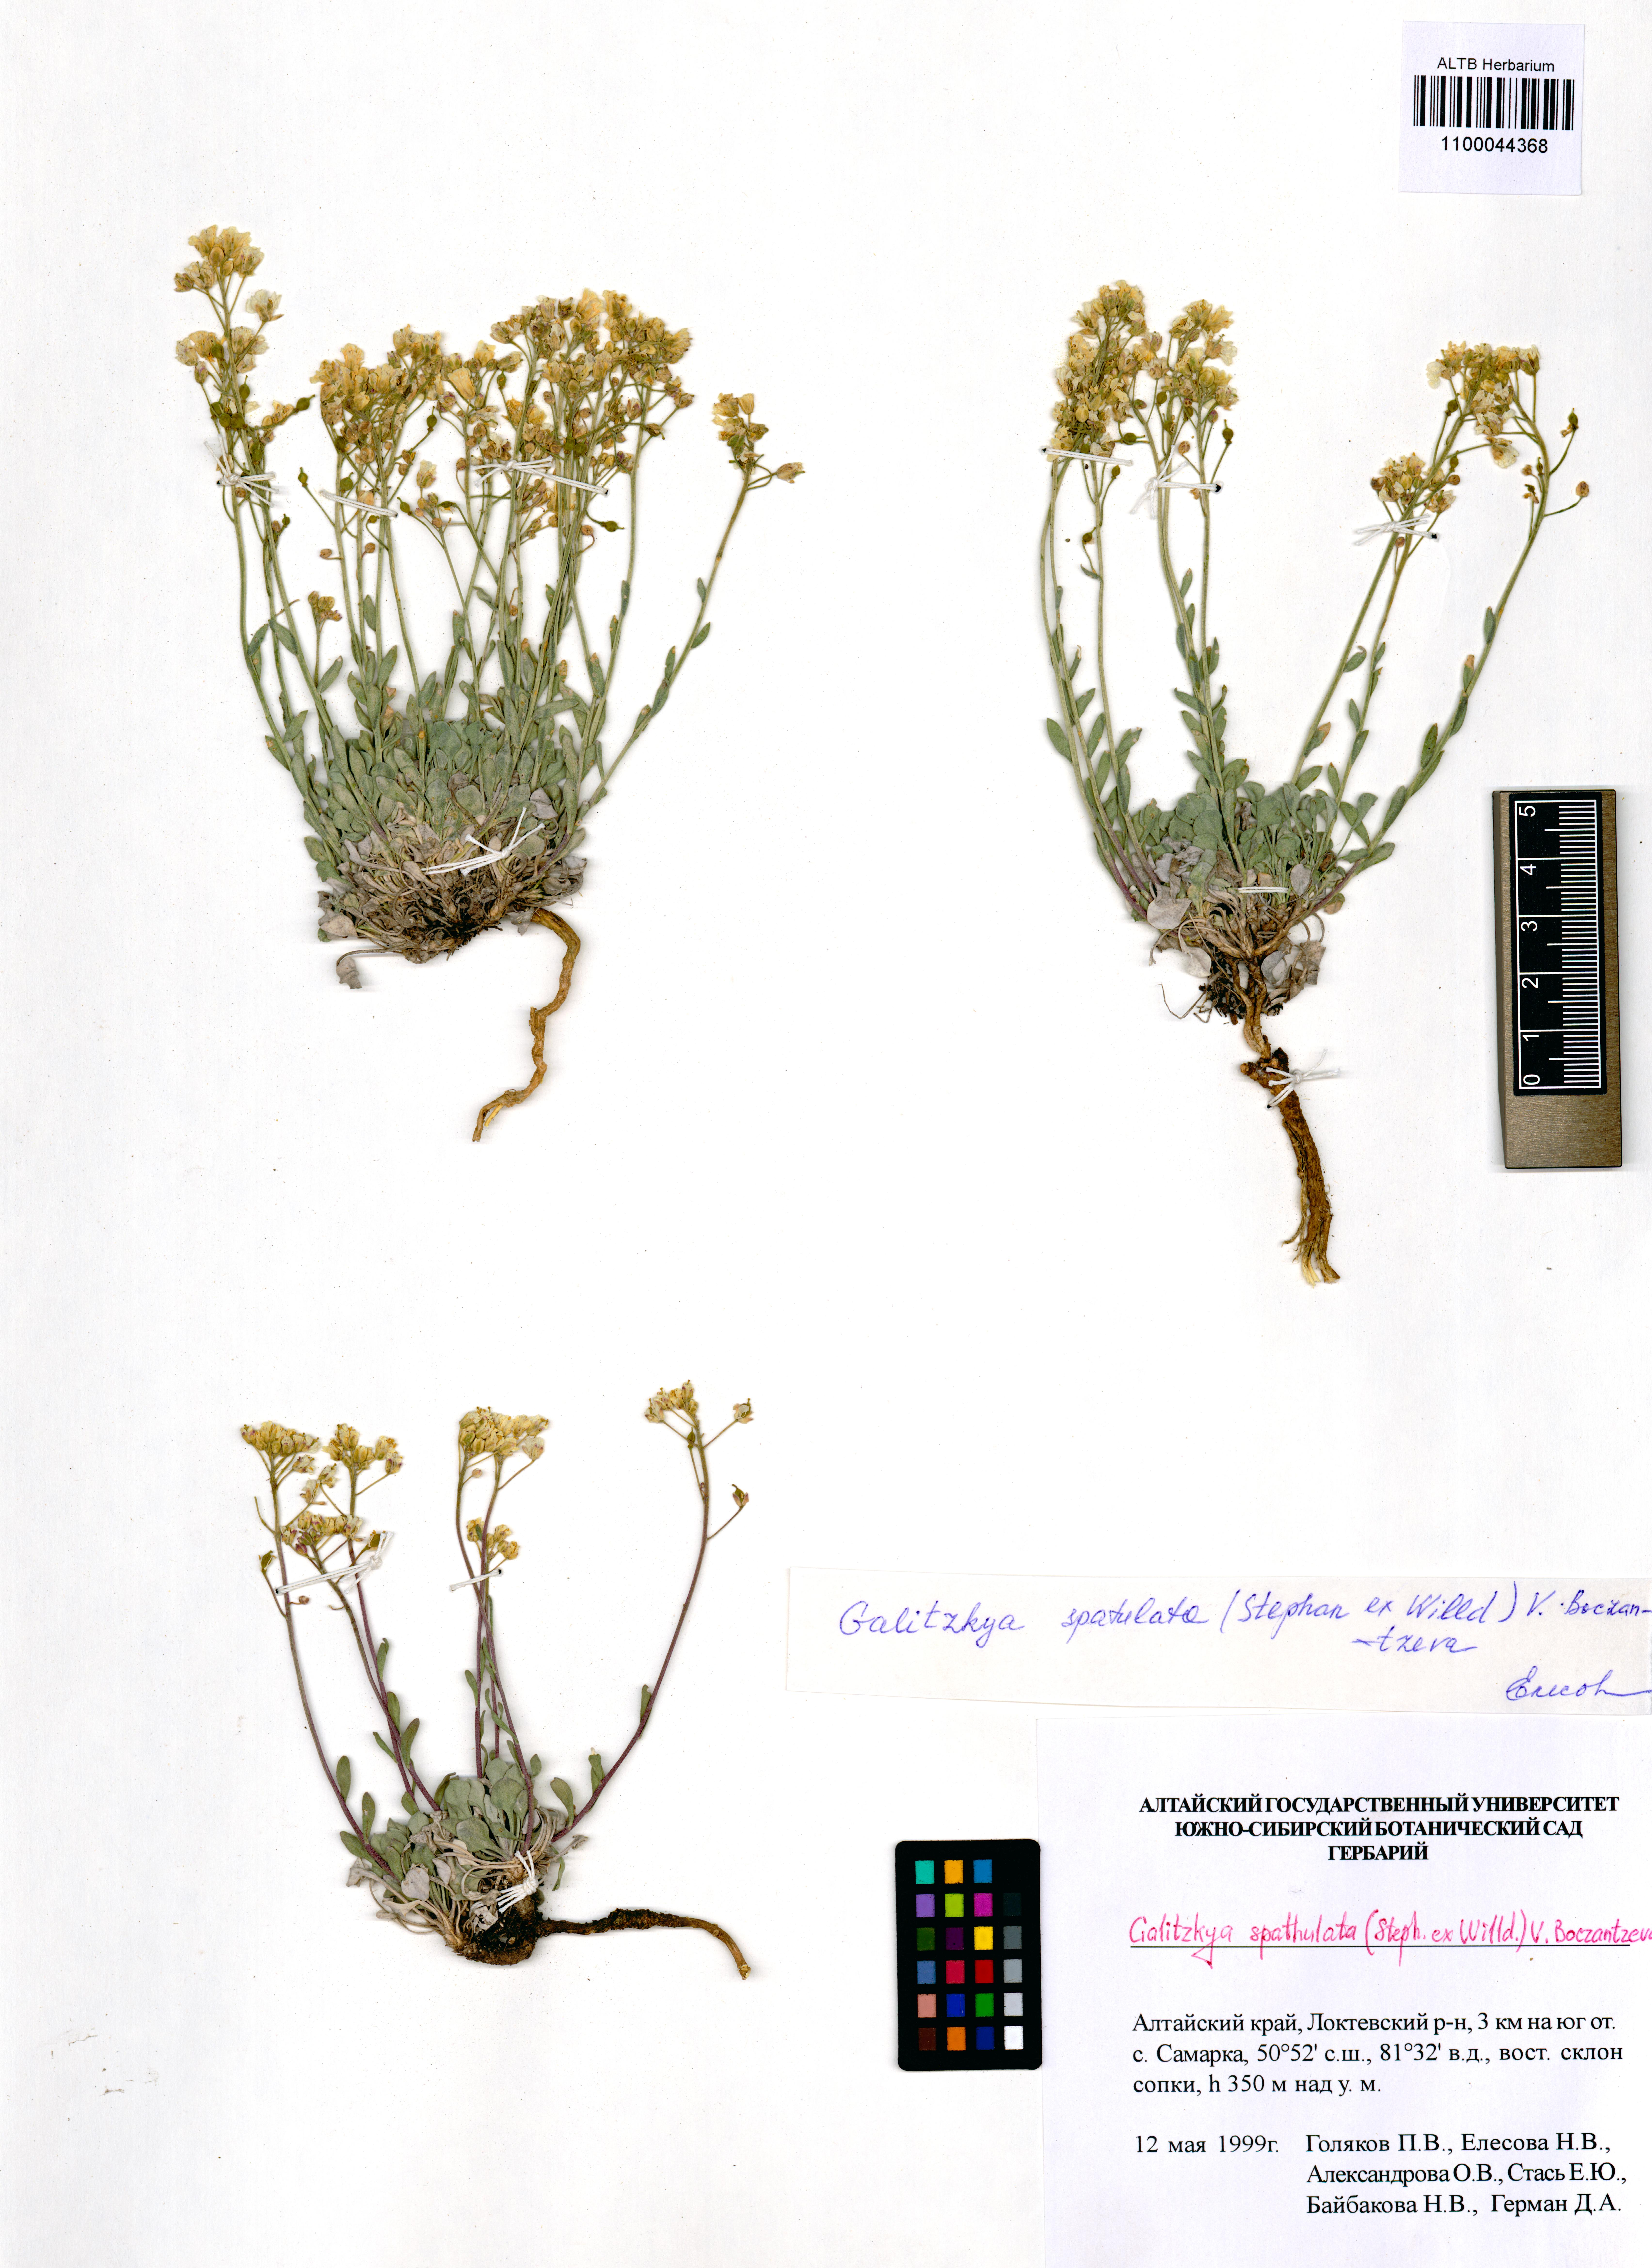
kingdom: Plantae
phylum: Tracheophyta
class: Magnoliopsida
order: Brassicales
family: Brassicaceae
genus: Galitzkya
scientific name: Galitzkya spathulata
